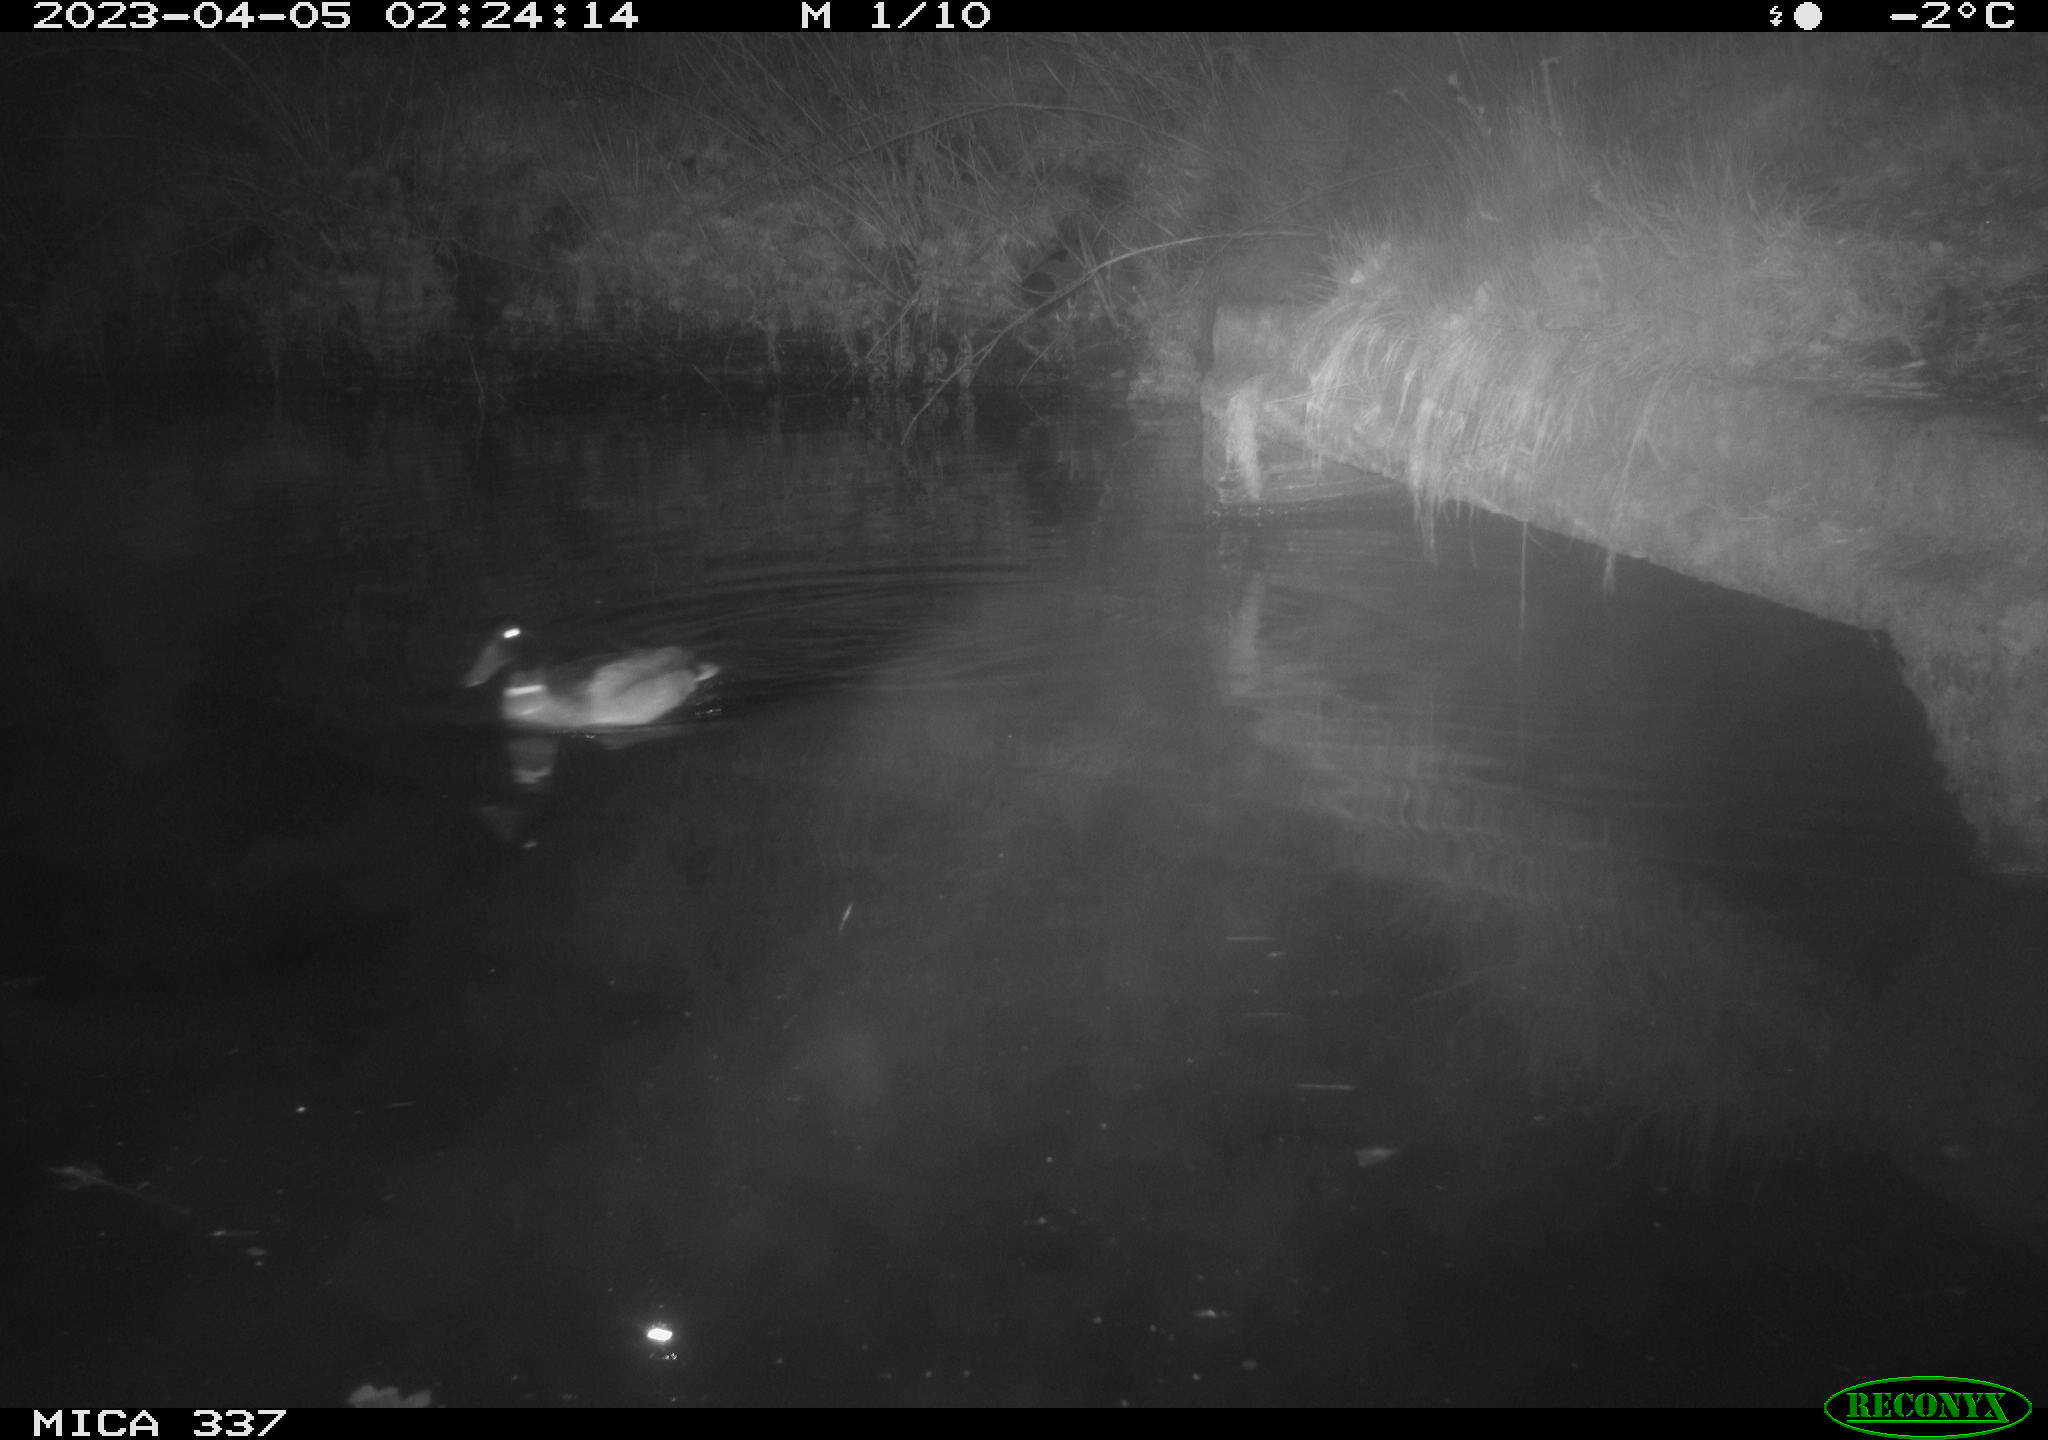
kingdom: Animalia
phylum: Chordata
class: Aves
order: Anseriformes
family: Anatidae
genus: Anas
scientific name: Anas
